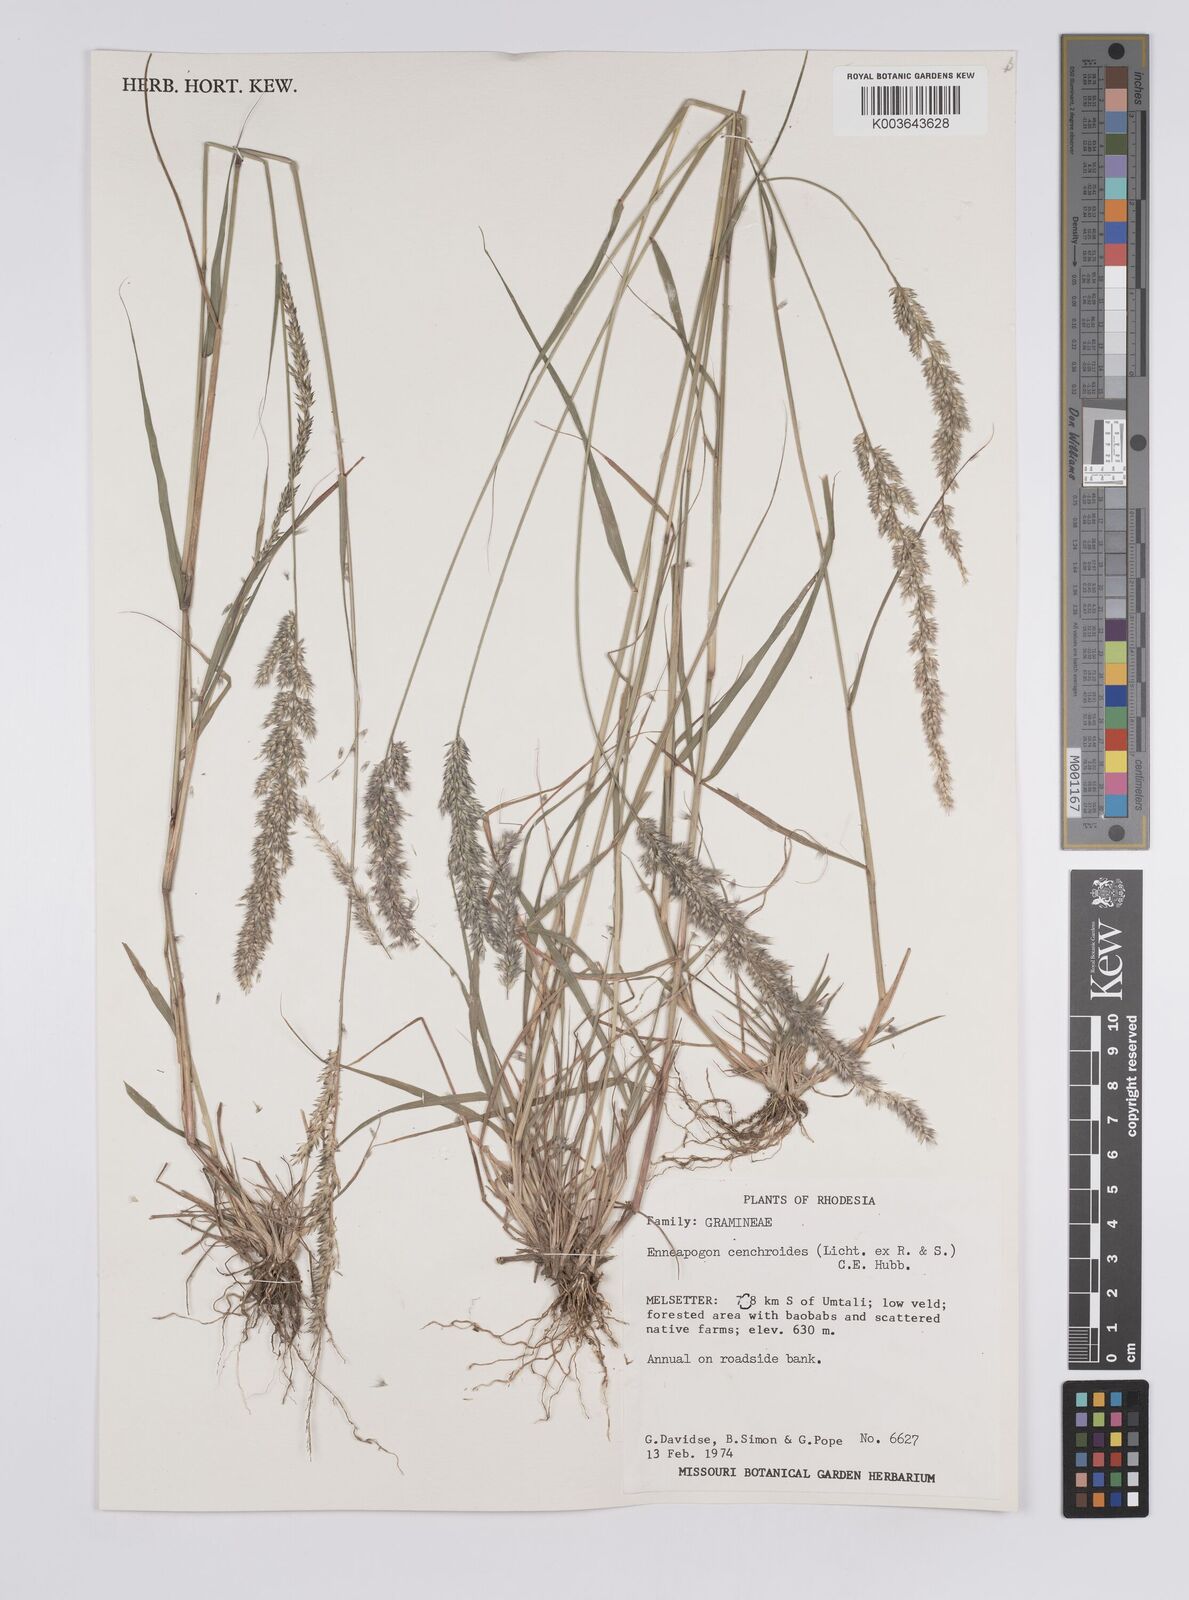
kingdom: Plantae
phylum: Tracheophyta
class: Liliopsida
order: Poales
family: Poaceae
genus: Enneapogon
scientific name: Enneapogon cenchroides
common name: Soft feather pappusgrass
